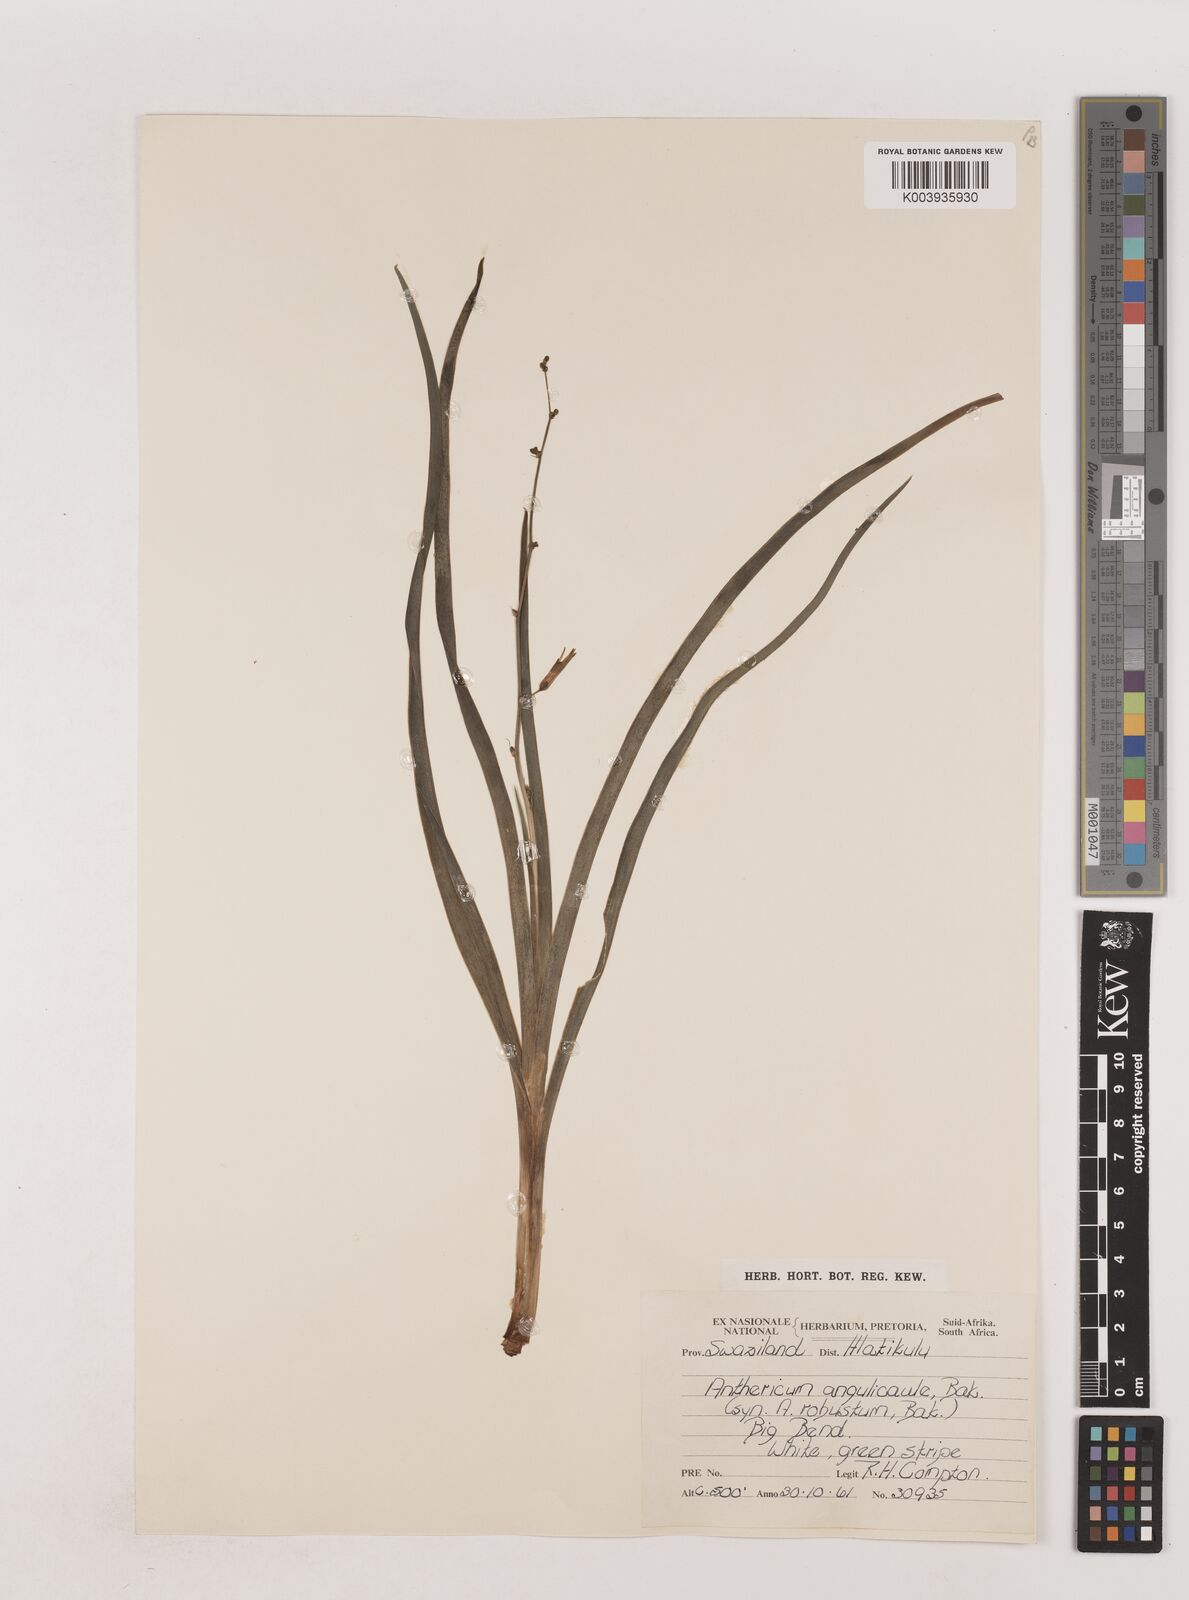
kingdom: Plantae
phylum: Tracheophyta
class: Liliopsida
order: Asparagales
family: Asparagaceae
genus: Chlorophytum
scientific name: Chlorophytum angulicaule
